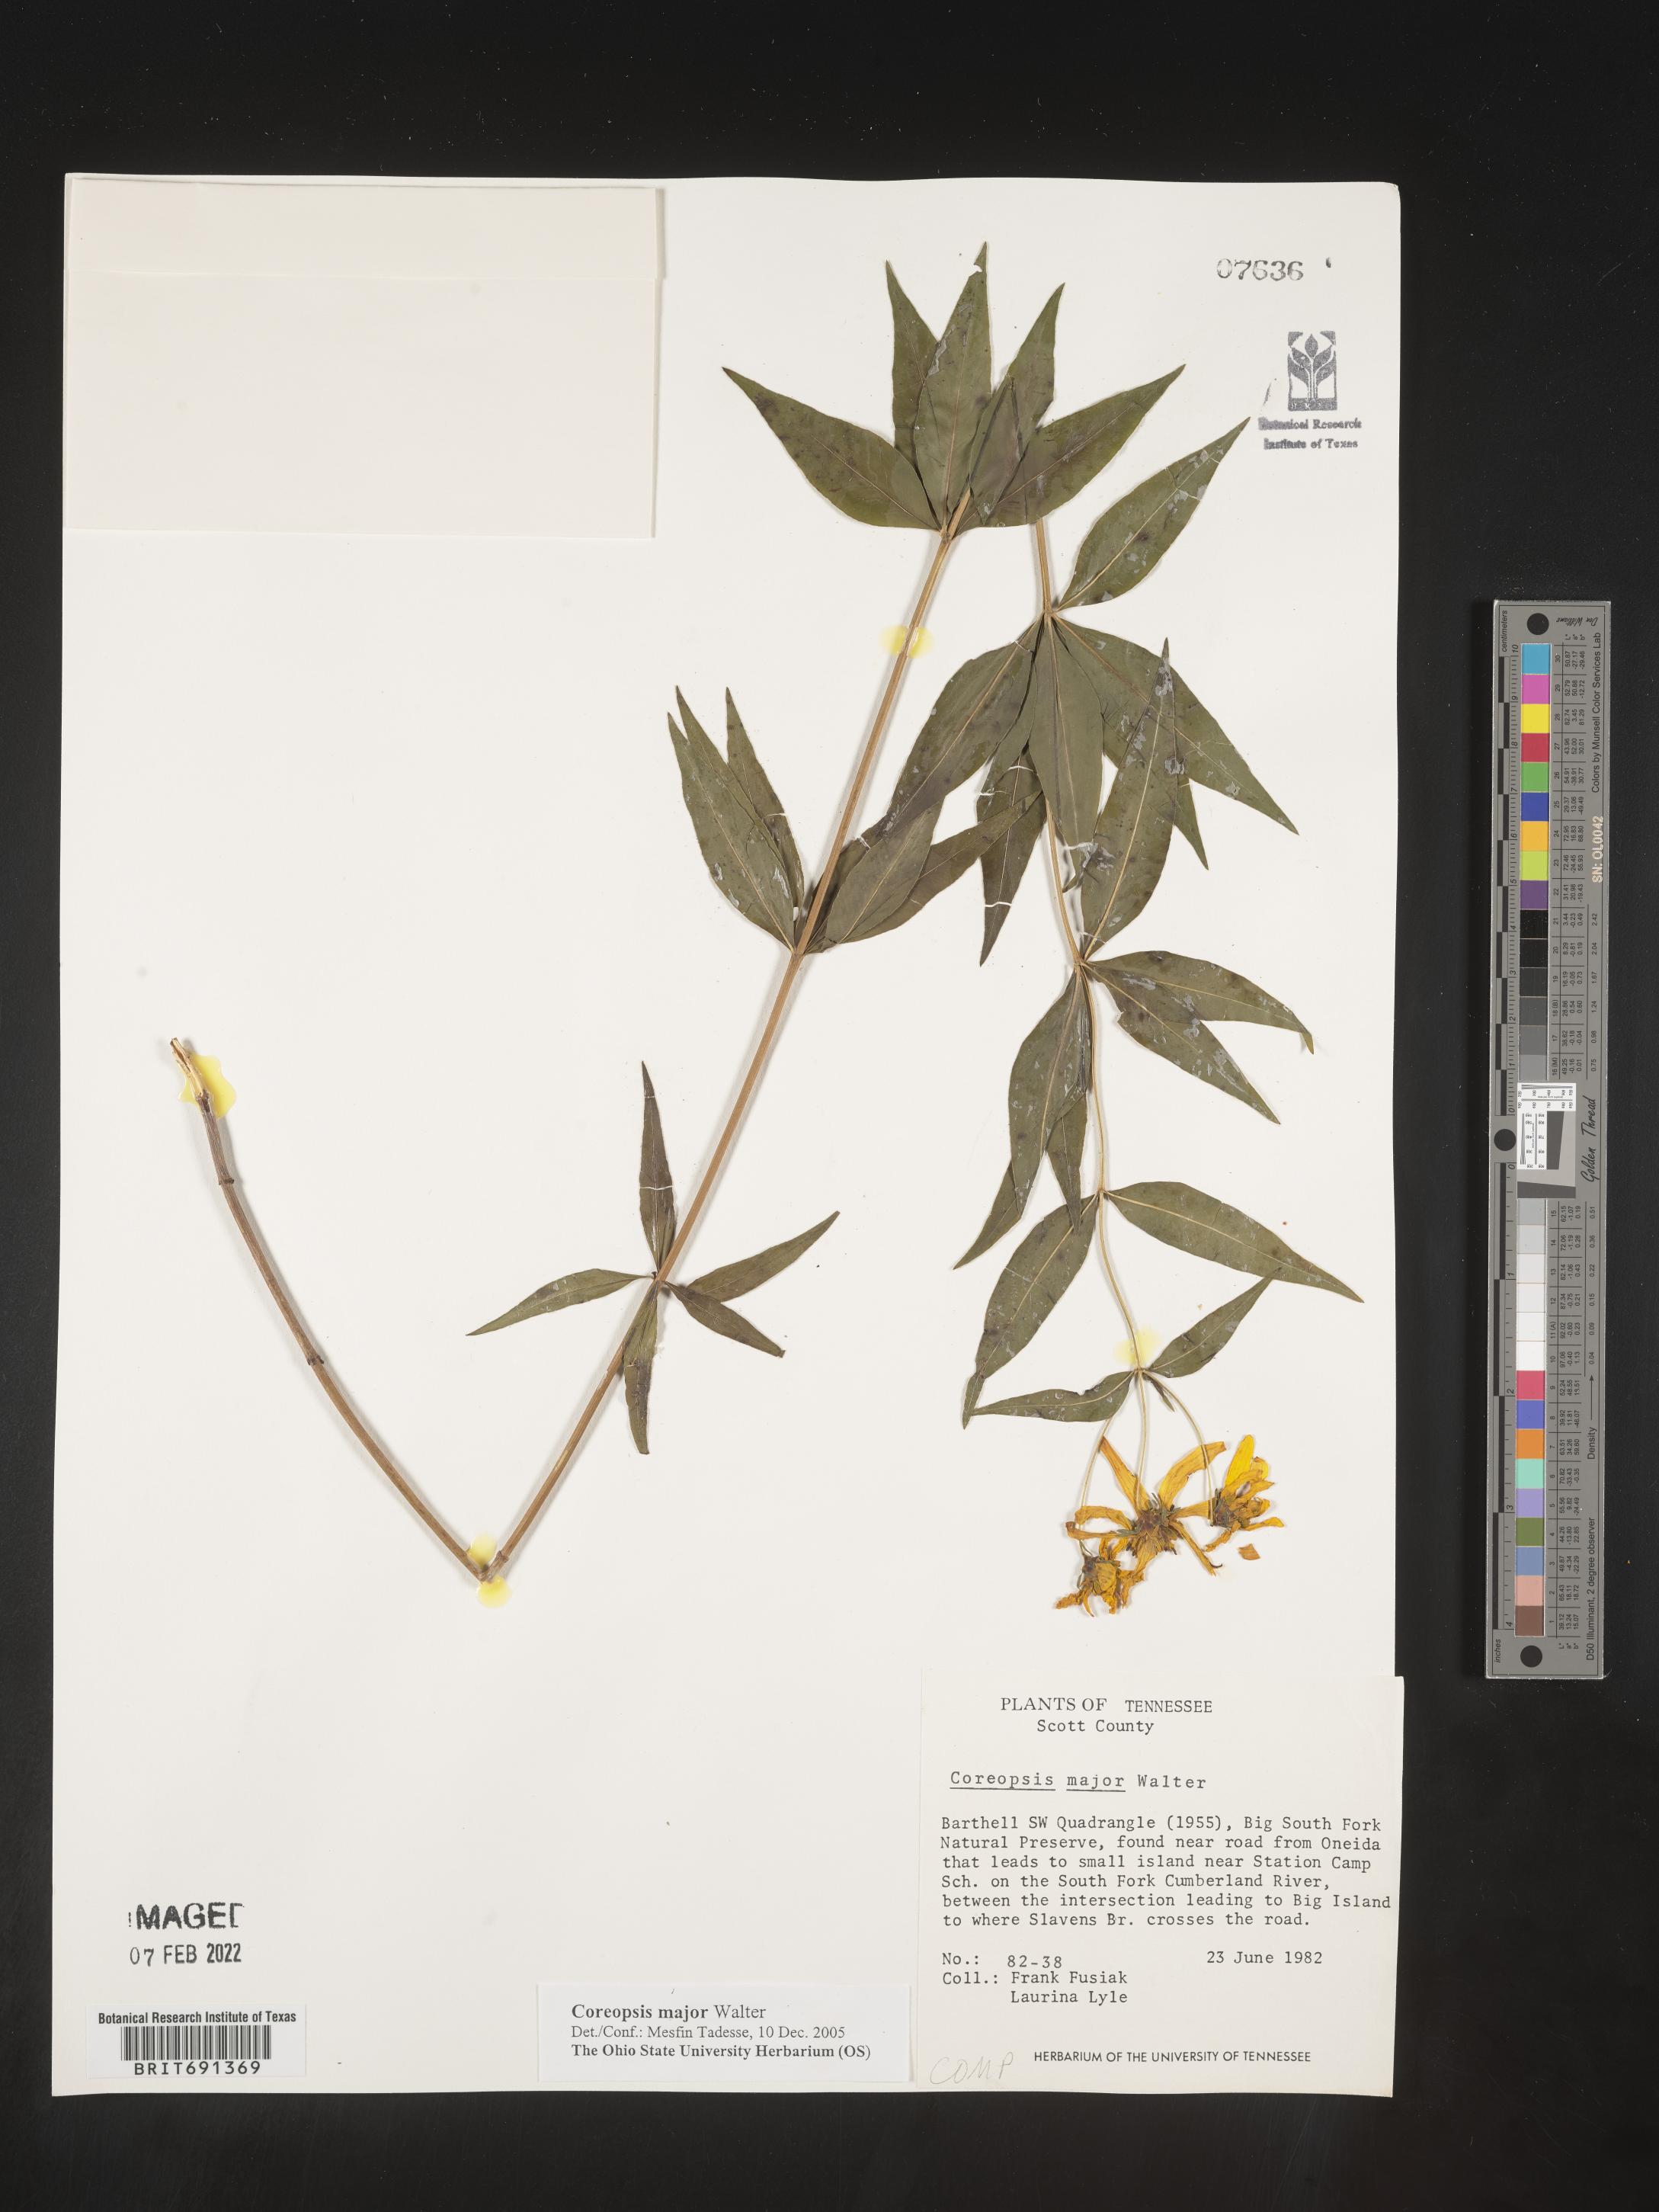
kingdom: Plantae
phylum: Tracheophyta
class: Magnoliopsida
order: Asterales
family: Asteraceae
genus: Coreopsis
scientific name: Coreopsis major
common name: Forest tickseed
